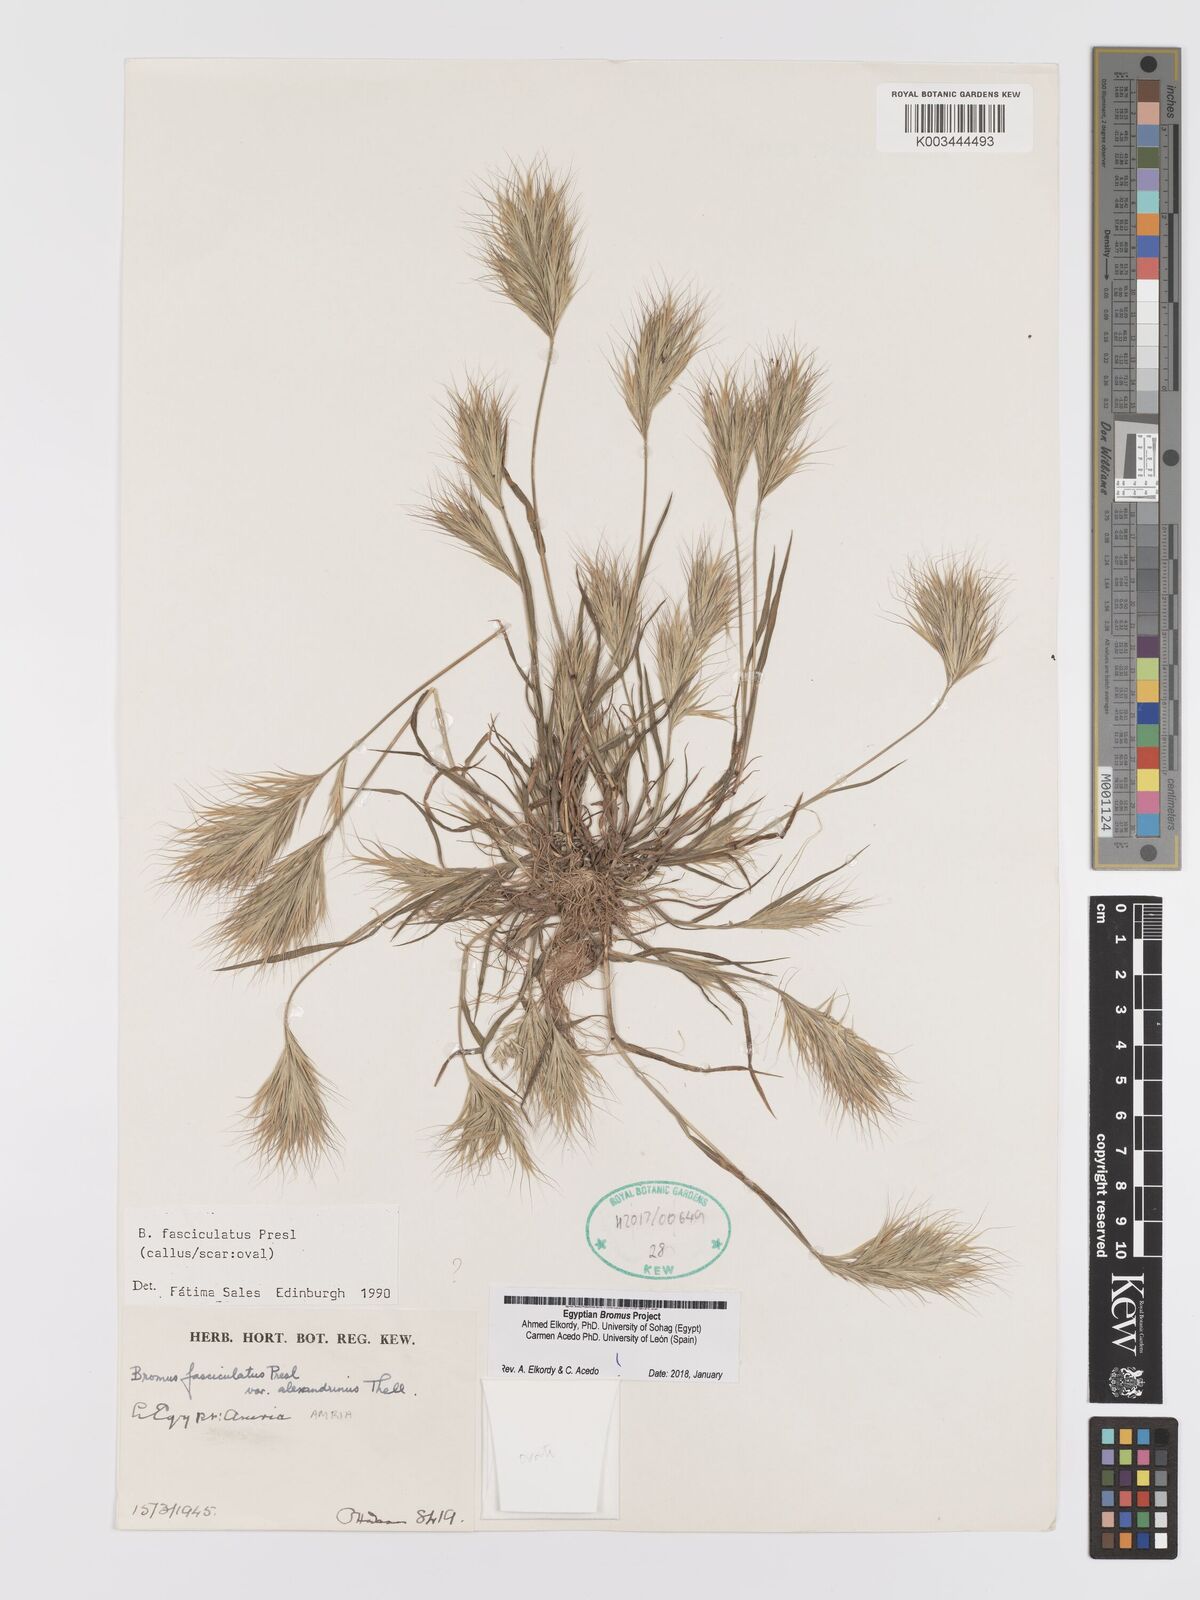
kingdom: Plantae
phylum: Tracheophyta
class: Liliopsida
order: Poales
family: Poaceae
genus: Bromus
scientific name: Bromus fasciculatus
